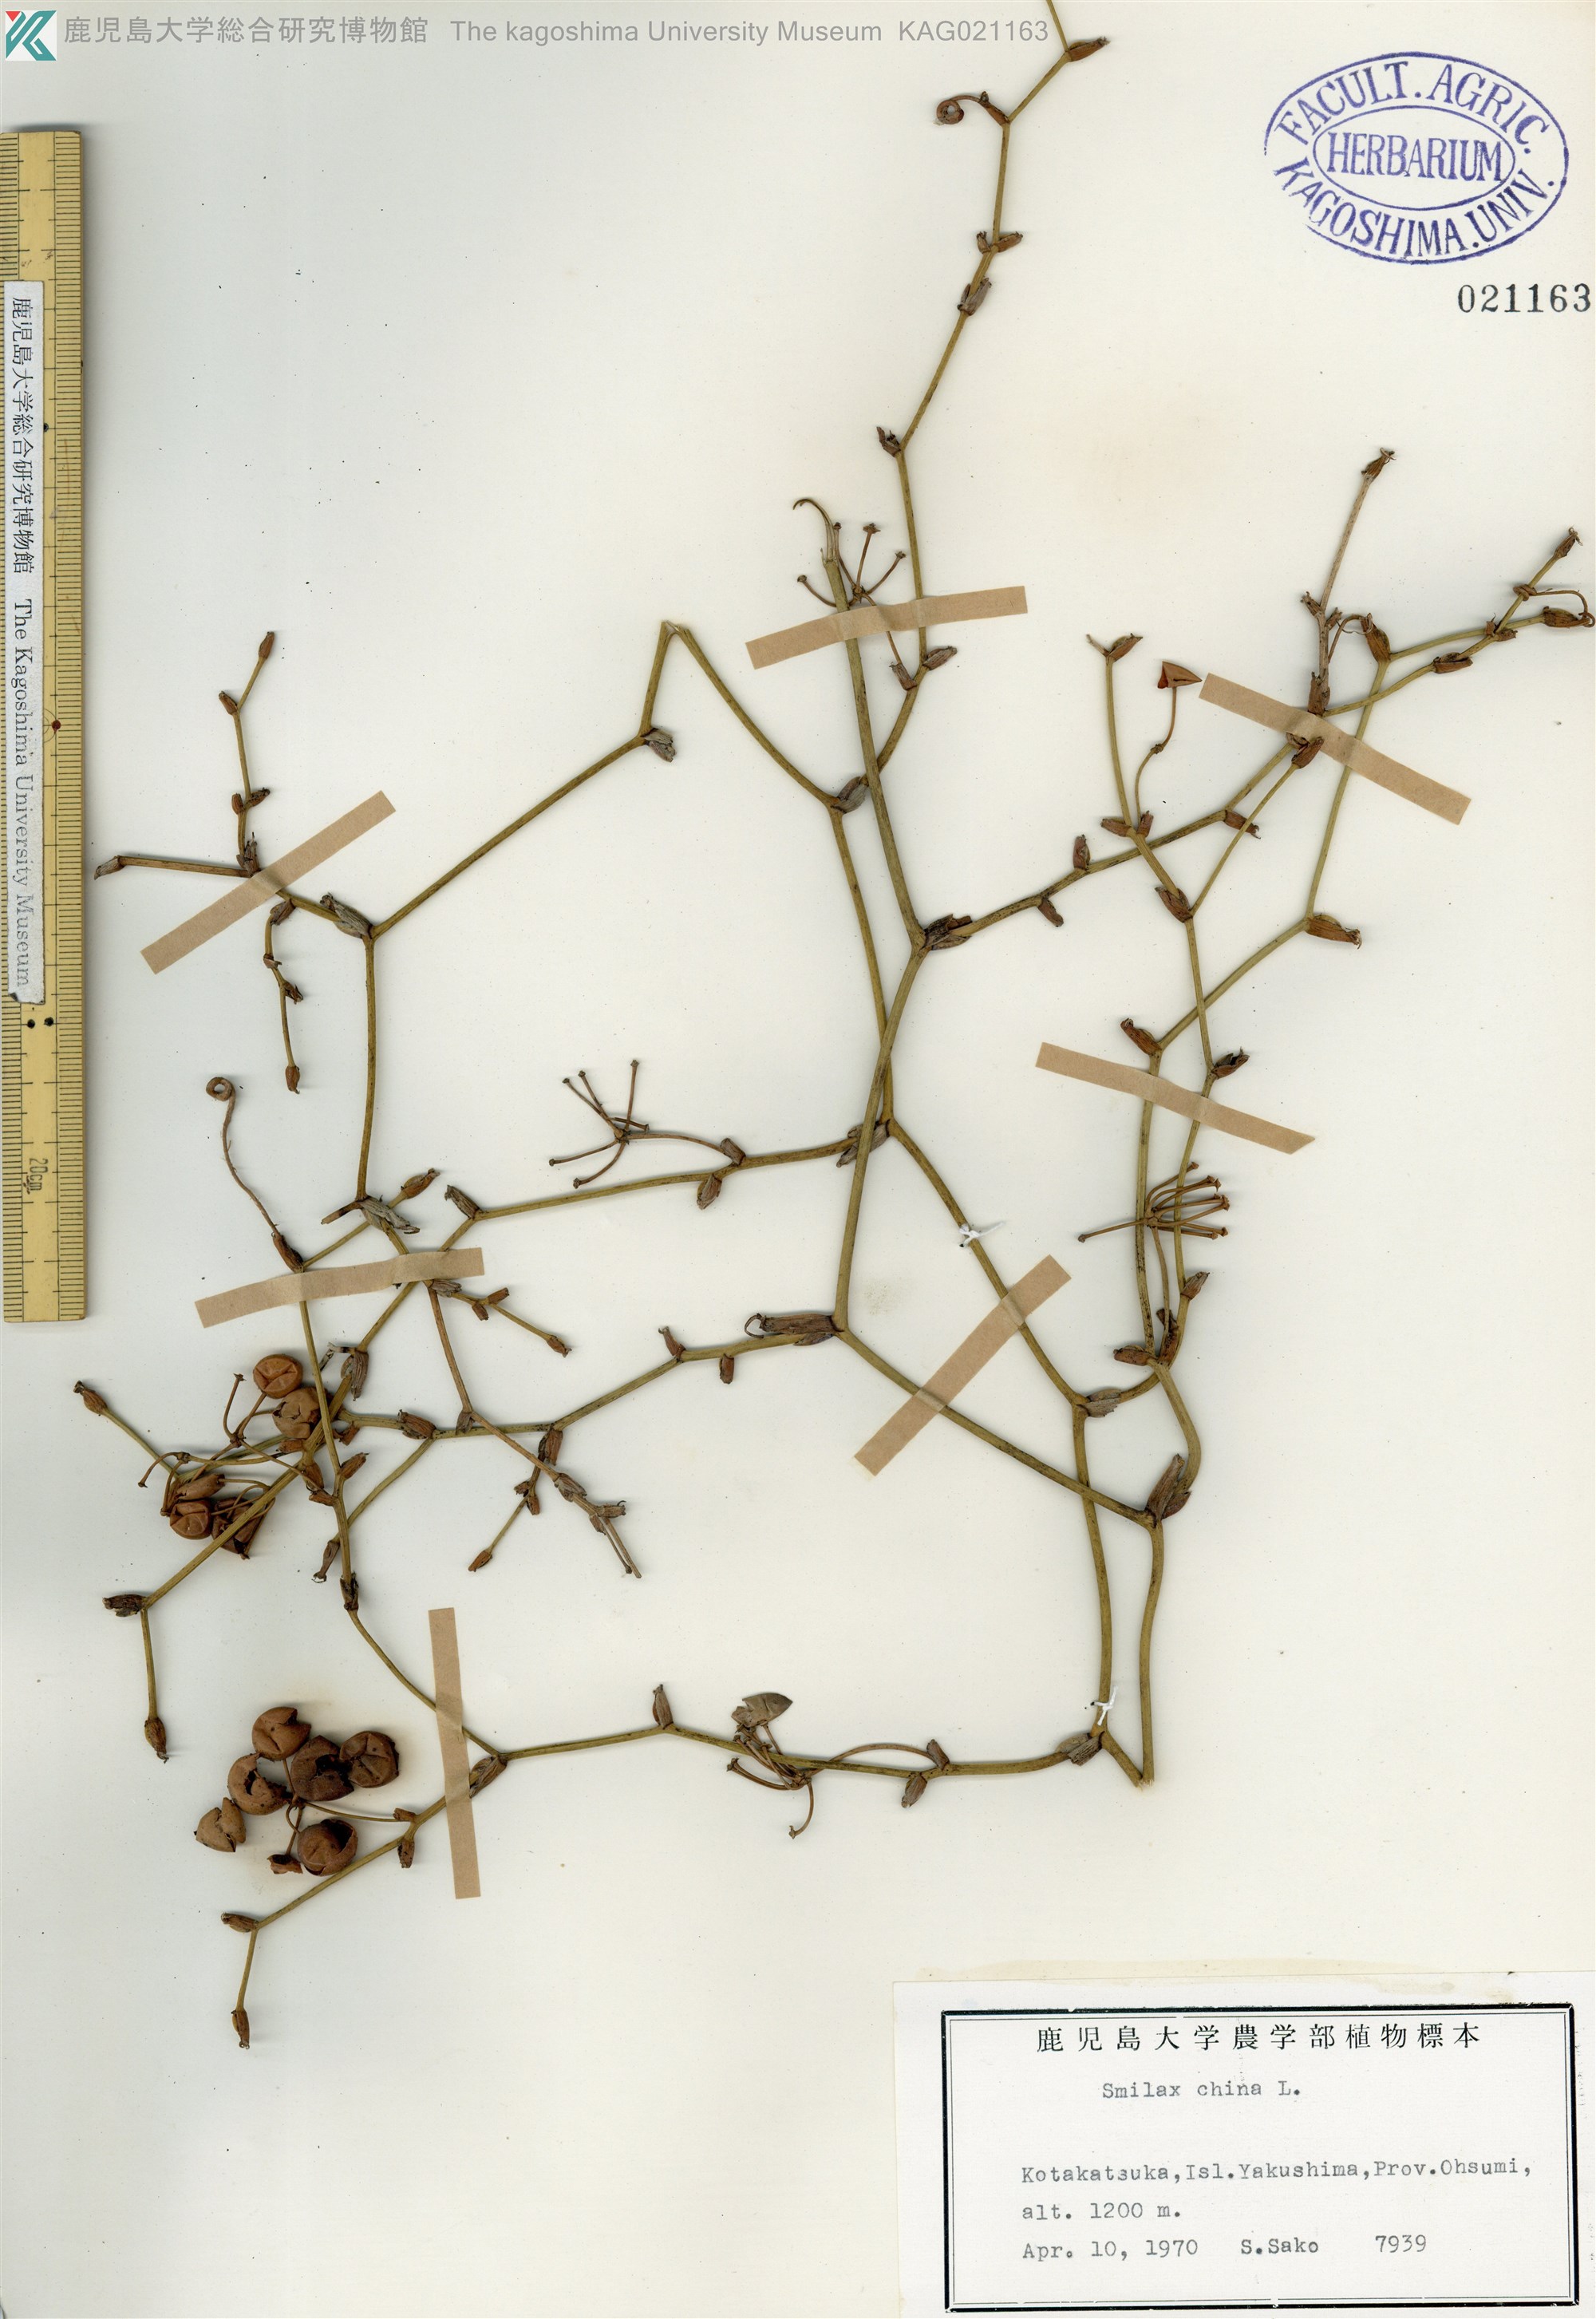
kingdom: Plantae
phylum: Tracheophyta
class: Liliopsida
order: Liliales
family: Smilacaceae
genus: Smilax
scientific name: Smilax china
